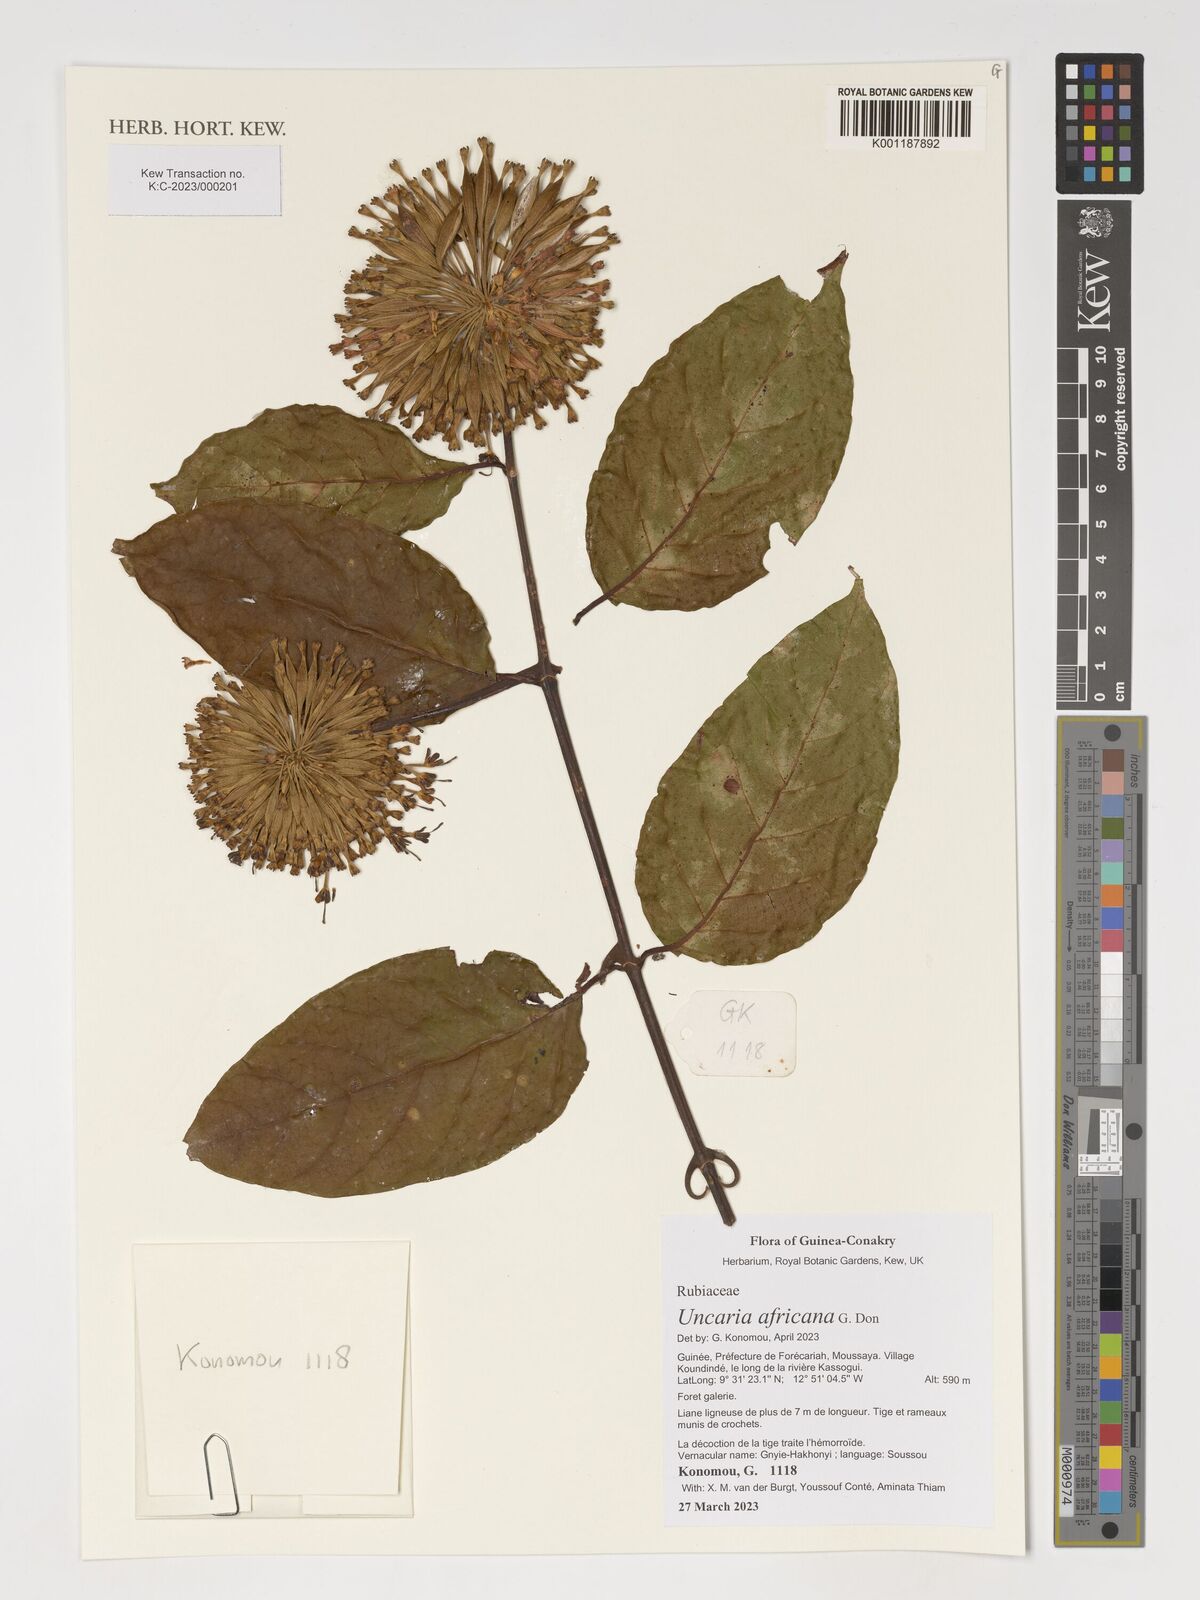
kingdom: Plantae
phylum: Tracheophyta
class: Magnoliopsida
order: Gentianales
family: Rubiaceae
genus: Uncaria
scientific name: Uncaria africana
